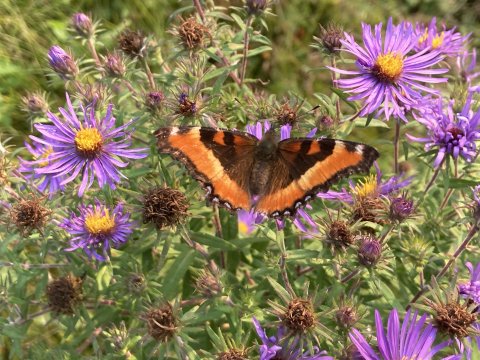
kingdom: Animalia
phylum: Arthropoda
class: Insecta
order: Lepidoptera
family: Nymphalidae
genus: Aglais
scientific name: Aglais milberti
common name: Milbert's Tortoiseshell
